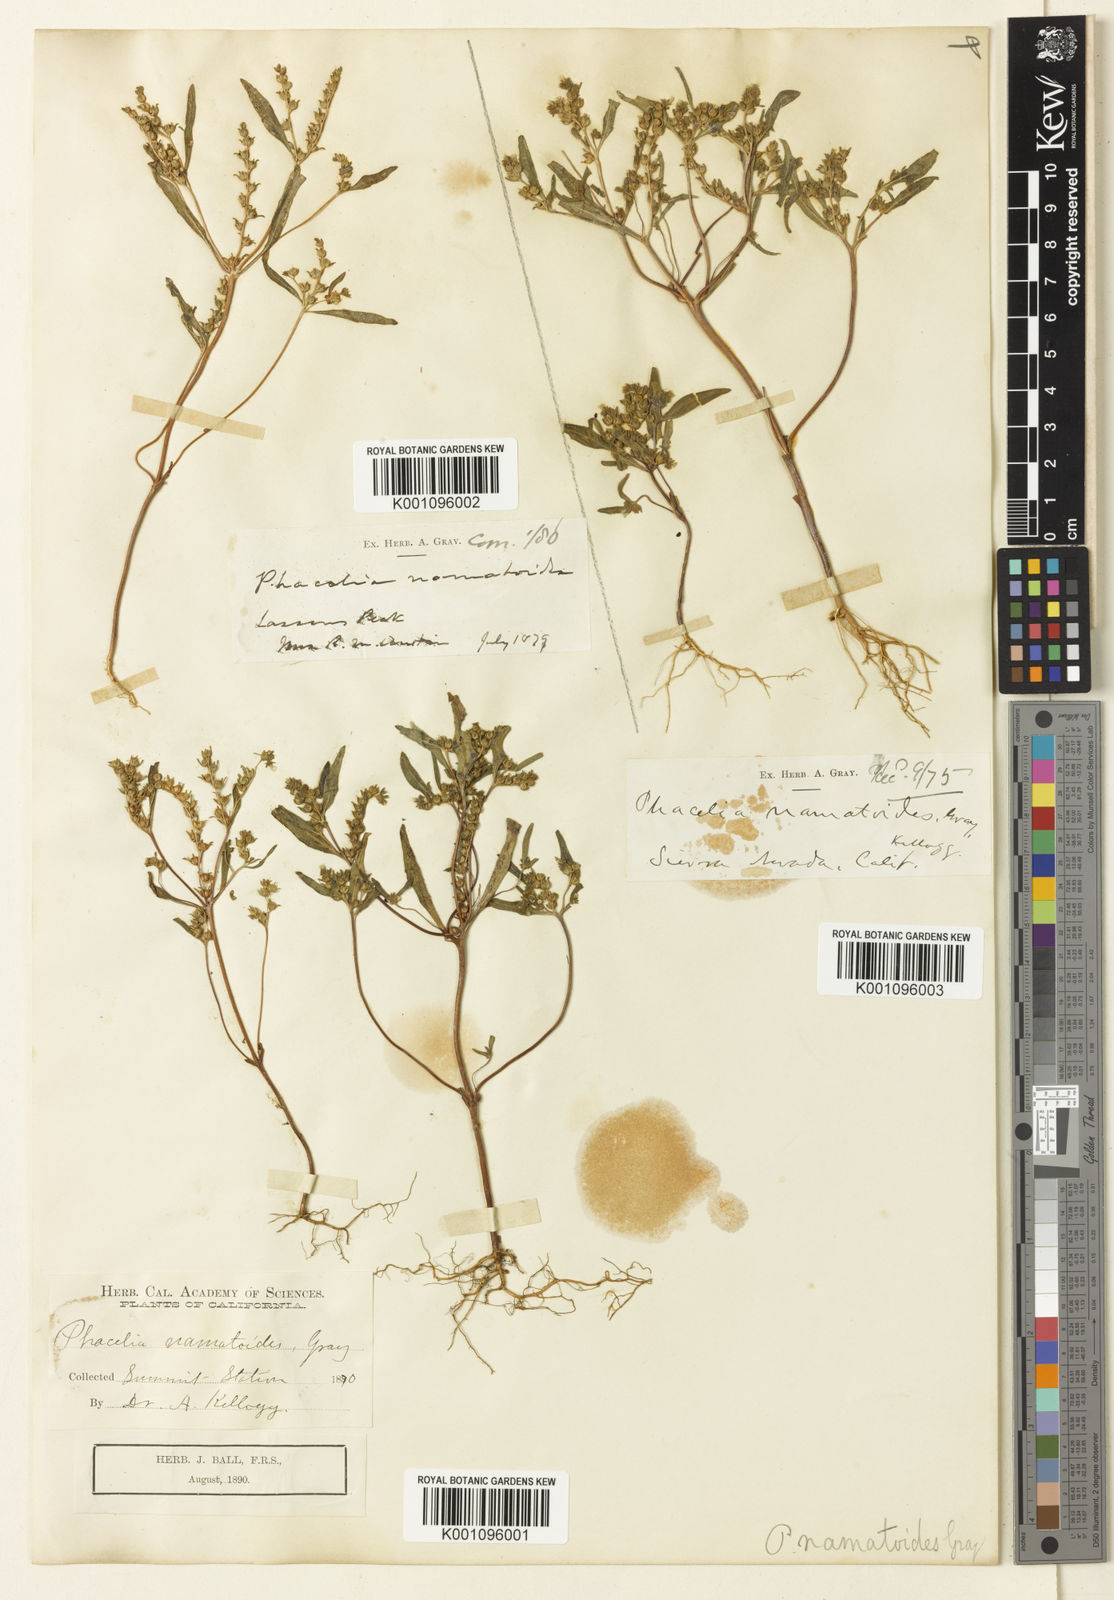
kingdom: Plantae
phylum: Tracheophyta
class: Magnoliopsida
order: Boraginales
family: Hydrophyllaceae
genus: Phacelia
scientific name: Phacelia racemosa
